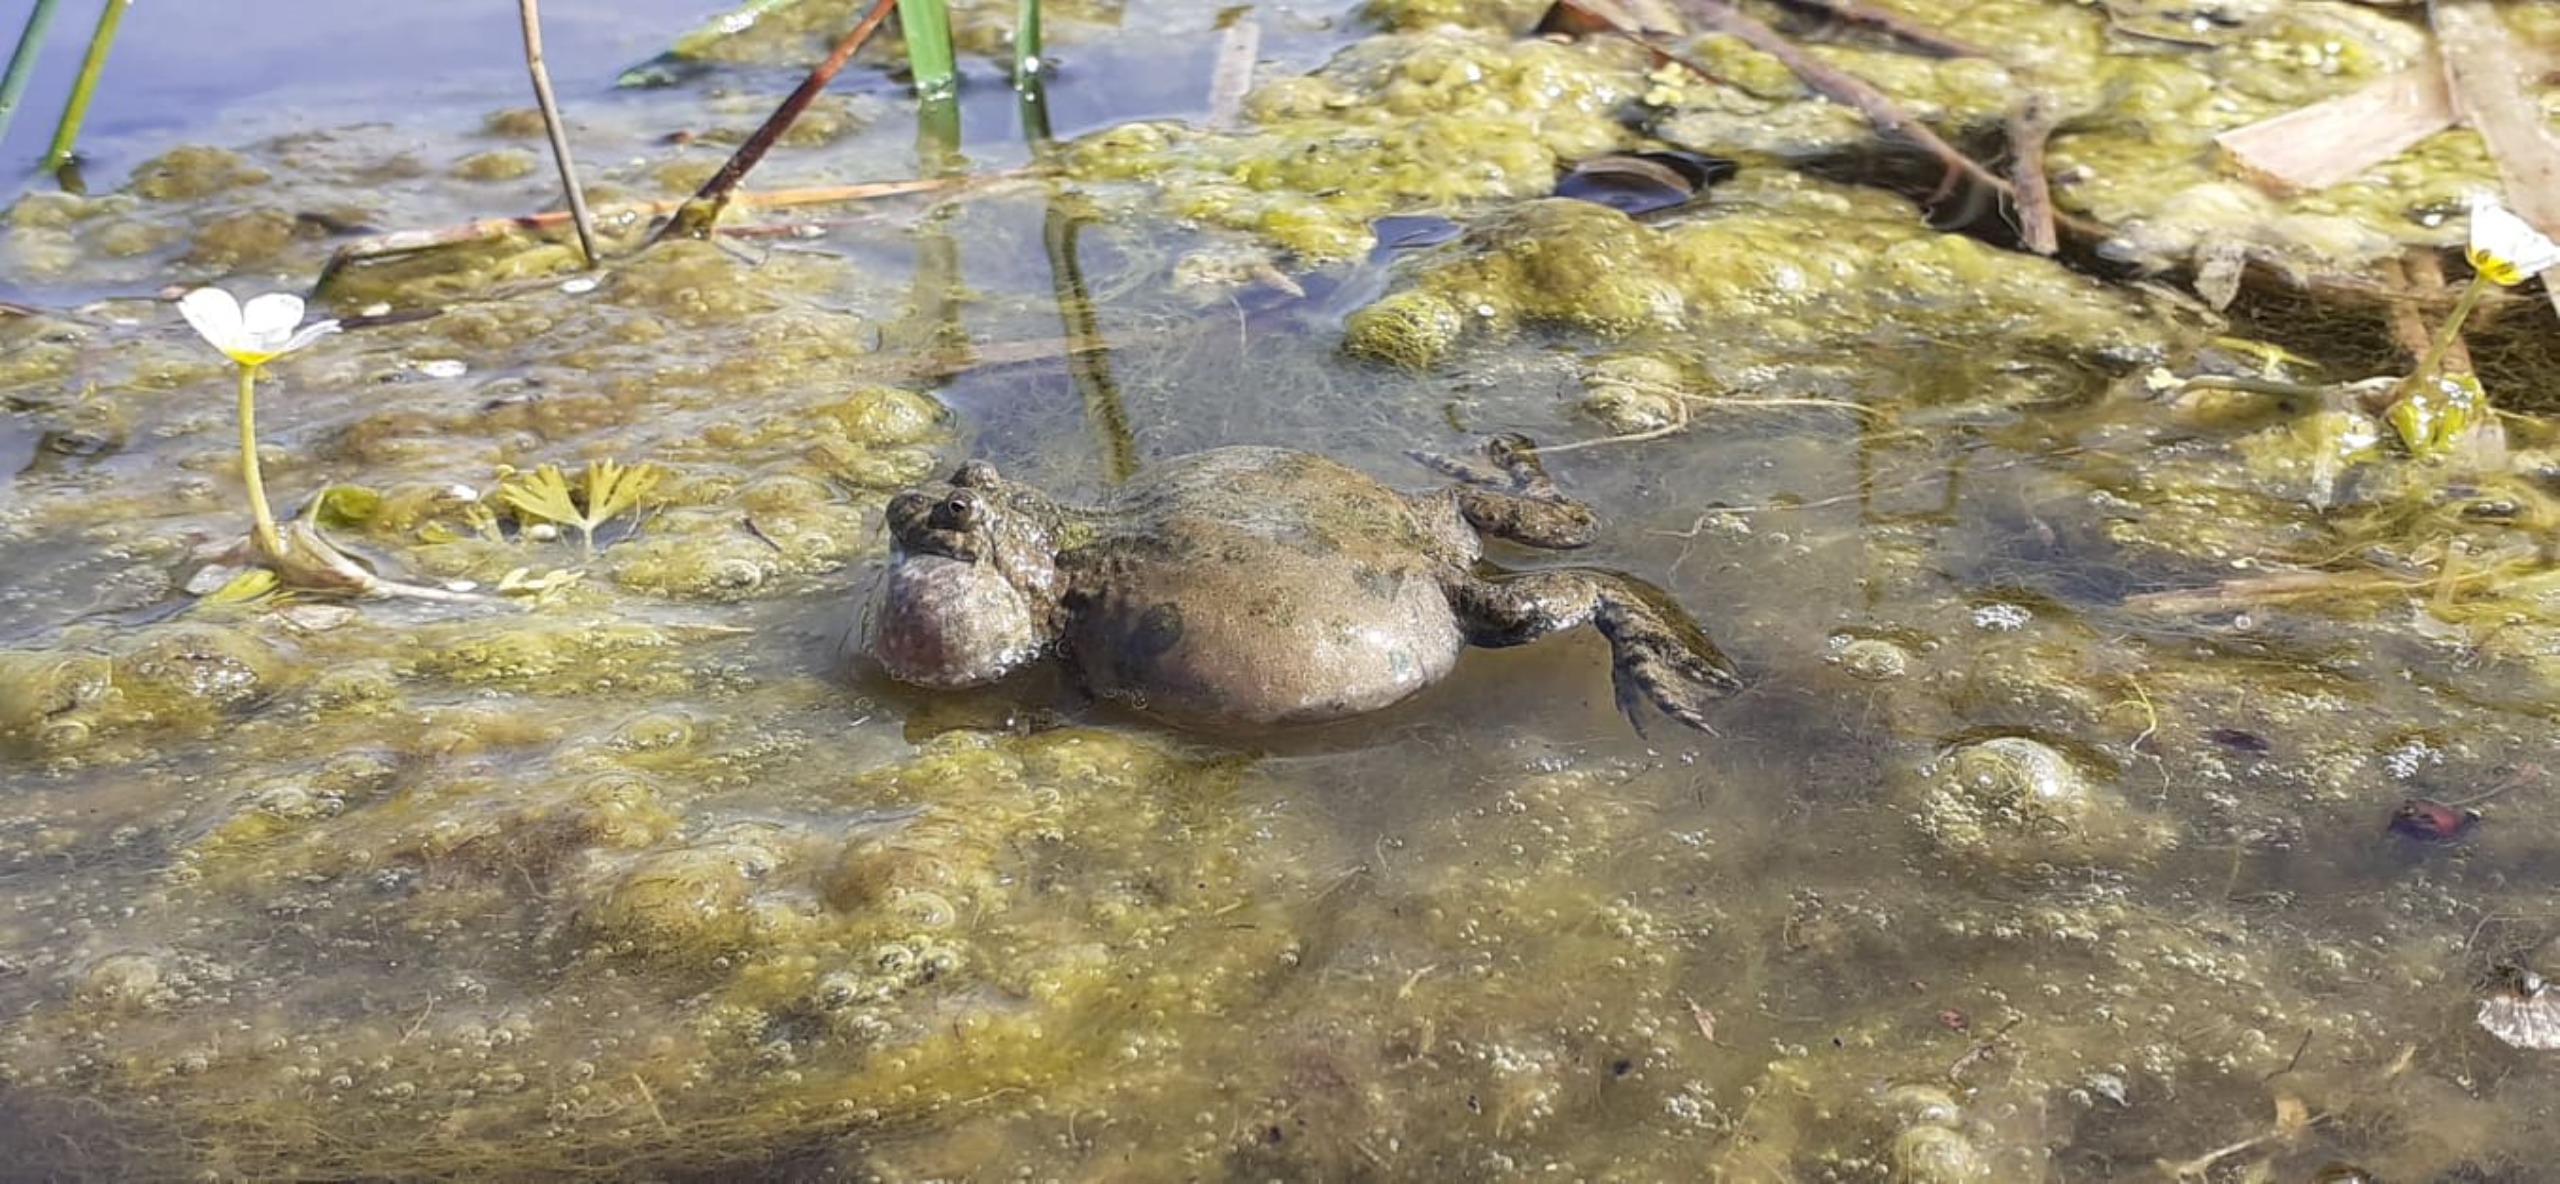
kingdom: Animalia
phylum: Chordata
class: Amphibia
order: Anura
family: Bombinatoridae
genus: Bombina
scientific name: Bombina bombina
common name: Klokkefrø
